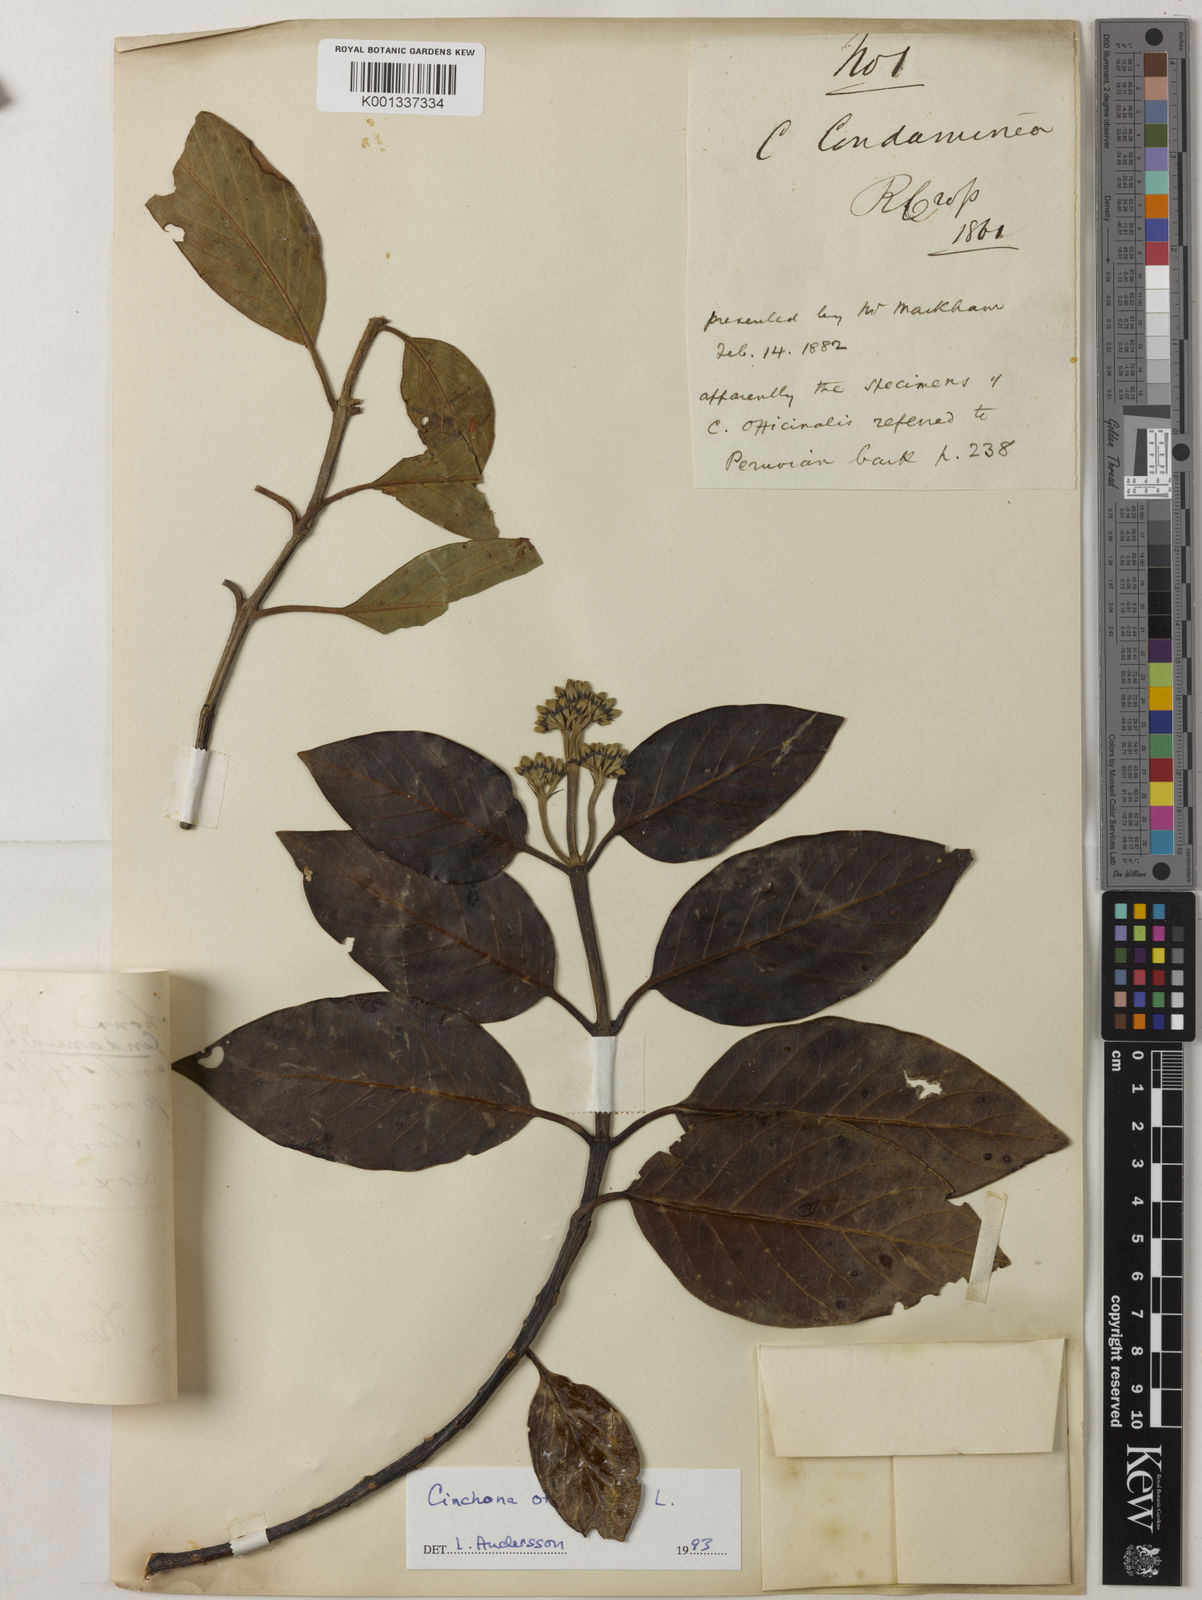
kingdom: Plantae
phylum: Tracheophyta
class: Magnoliopsida
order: Gentianales
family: Rubiaceae
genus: Cinchona
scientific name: Cinchona officinalis
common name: Lojabark
